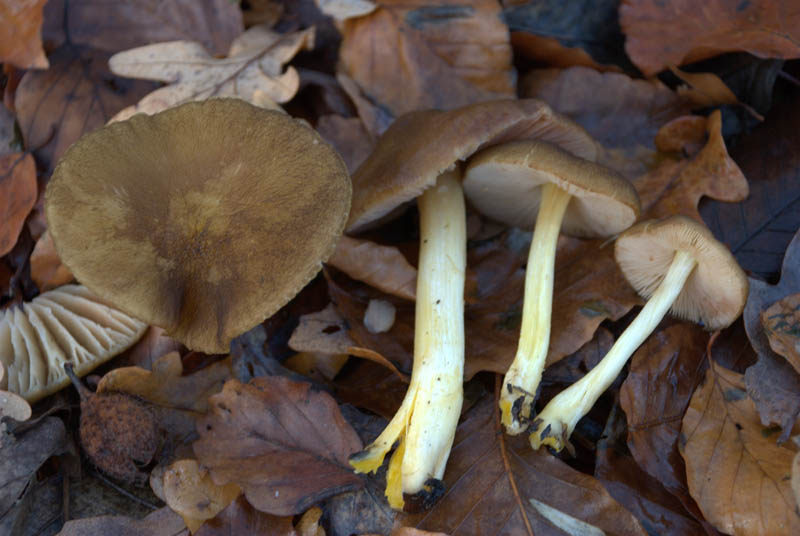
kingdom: Fungi
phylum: Basidiomycota
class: Agaricomycetes
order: Agaricales
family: Pluteaceae
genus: Pluteus
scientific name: Pluteus romellii
